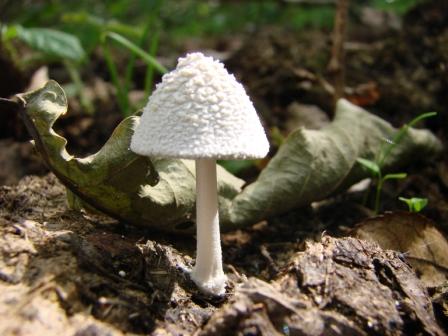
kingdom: Fungi
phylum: Basidiomycota
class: Agaricomycetes
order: Agaricales
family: Psathyrellaceae
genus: Coprinopsis
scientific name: Coprinopsis nivea
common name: snehvid blækhat
